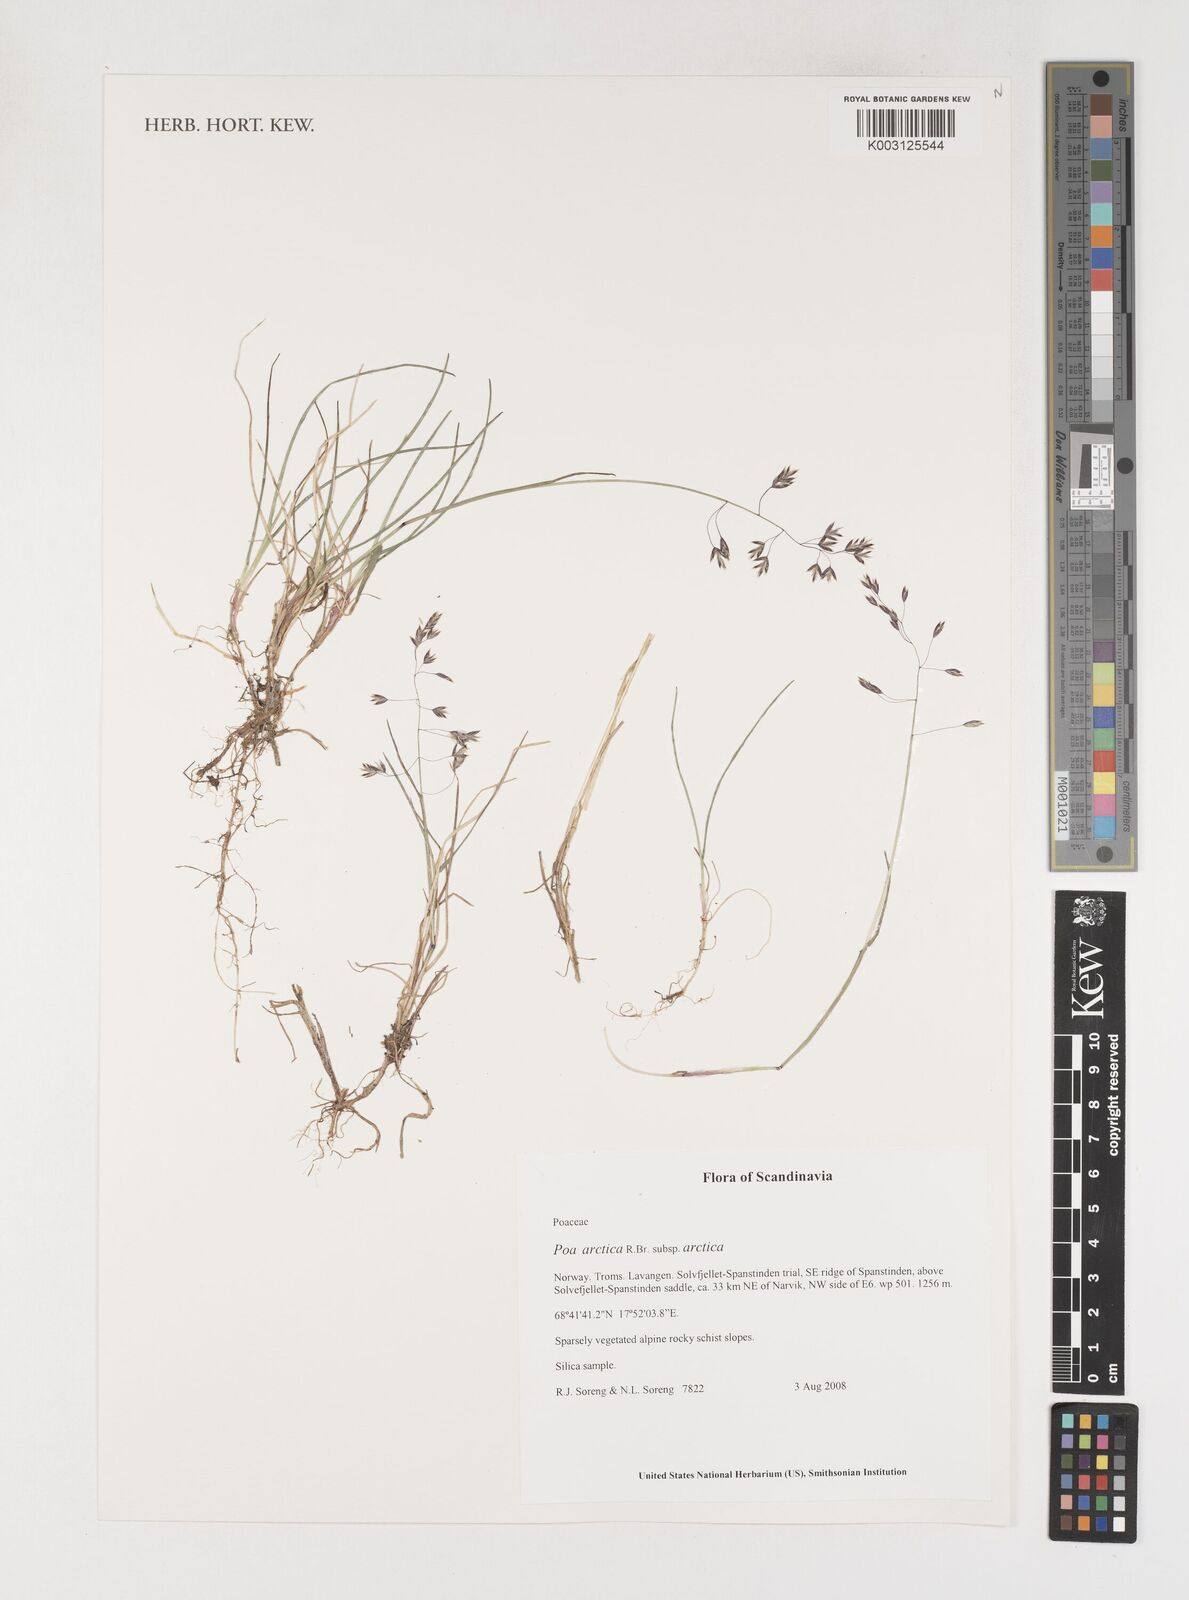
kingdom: Plantae
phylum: Tracheophyta
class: Liliopsida
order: Poales
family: Poaceae
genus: Poa
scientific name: Poa arctica
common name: Arctic bluegrass
